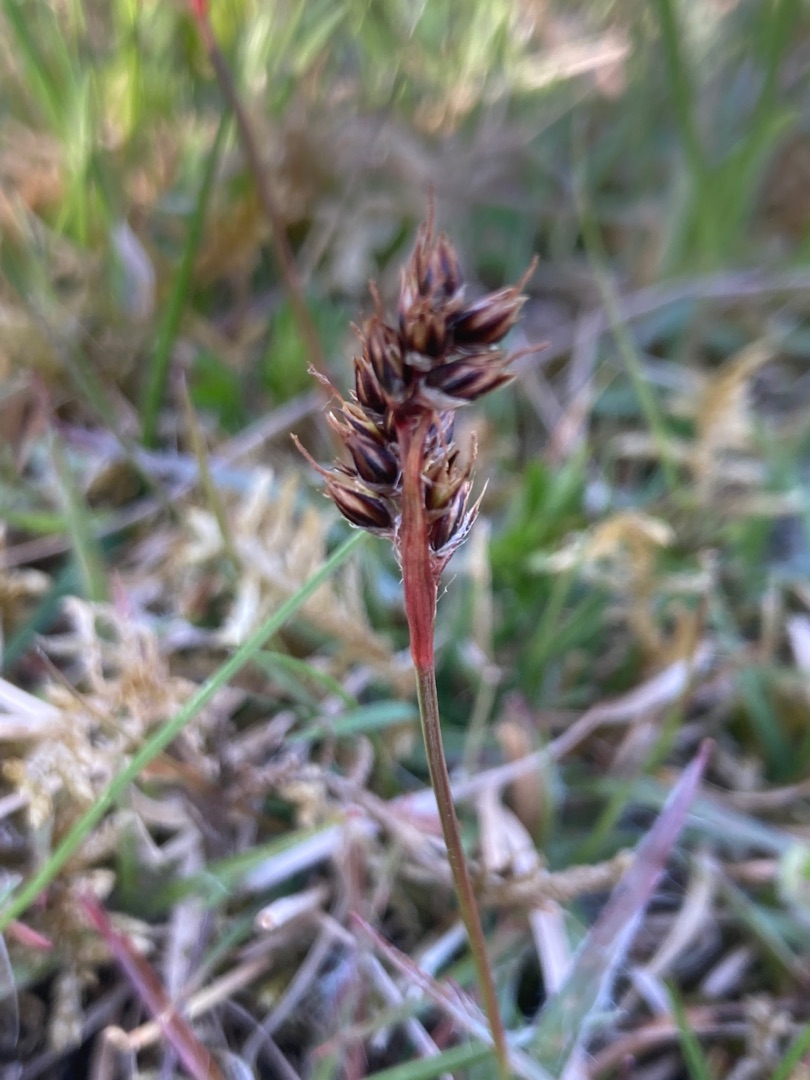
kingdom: Plantae
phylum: Tracheophyta
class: Liliopsida
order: Poales
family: Juncaceae
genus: Luzula
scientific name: Luzula campestris
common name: Mark-frytle
